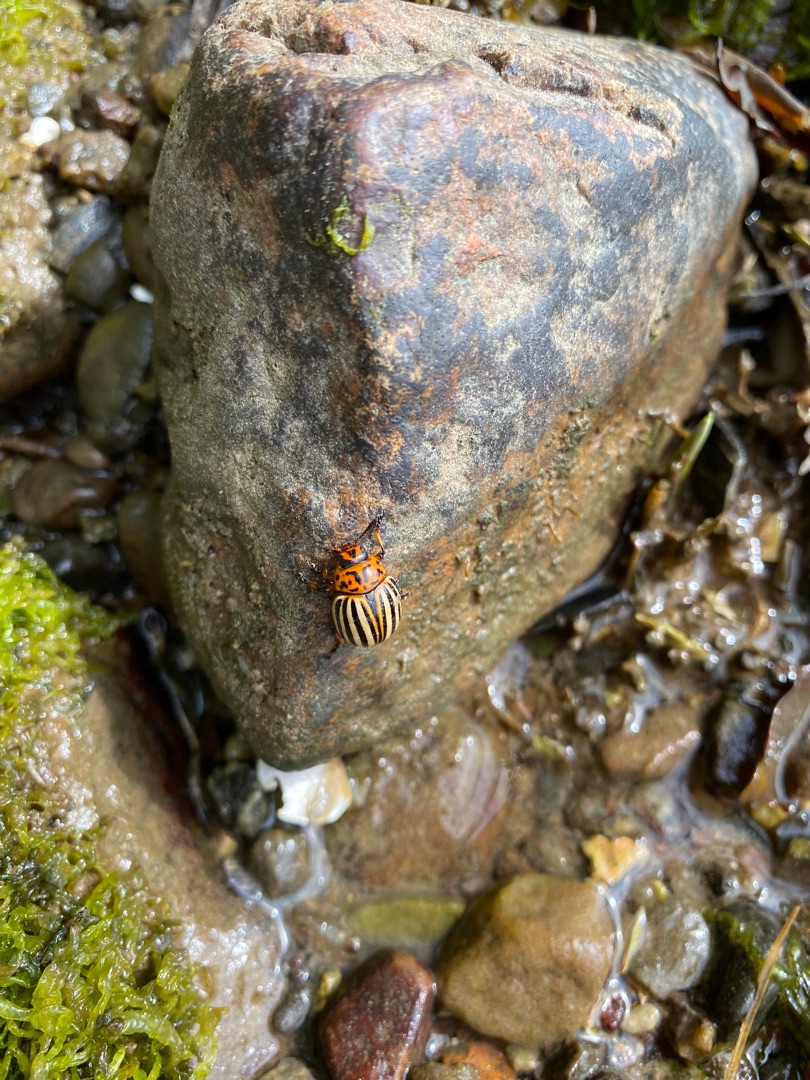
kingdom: Animalia
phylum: Arthropoda
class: Insecta
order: Coleoptera
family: Chrysomelidae
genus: Leptinotarsa
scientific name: Leptinotarsa decemlineata
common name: Coloradobille
